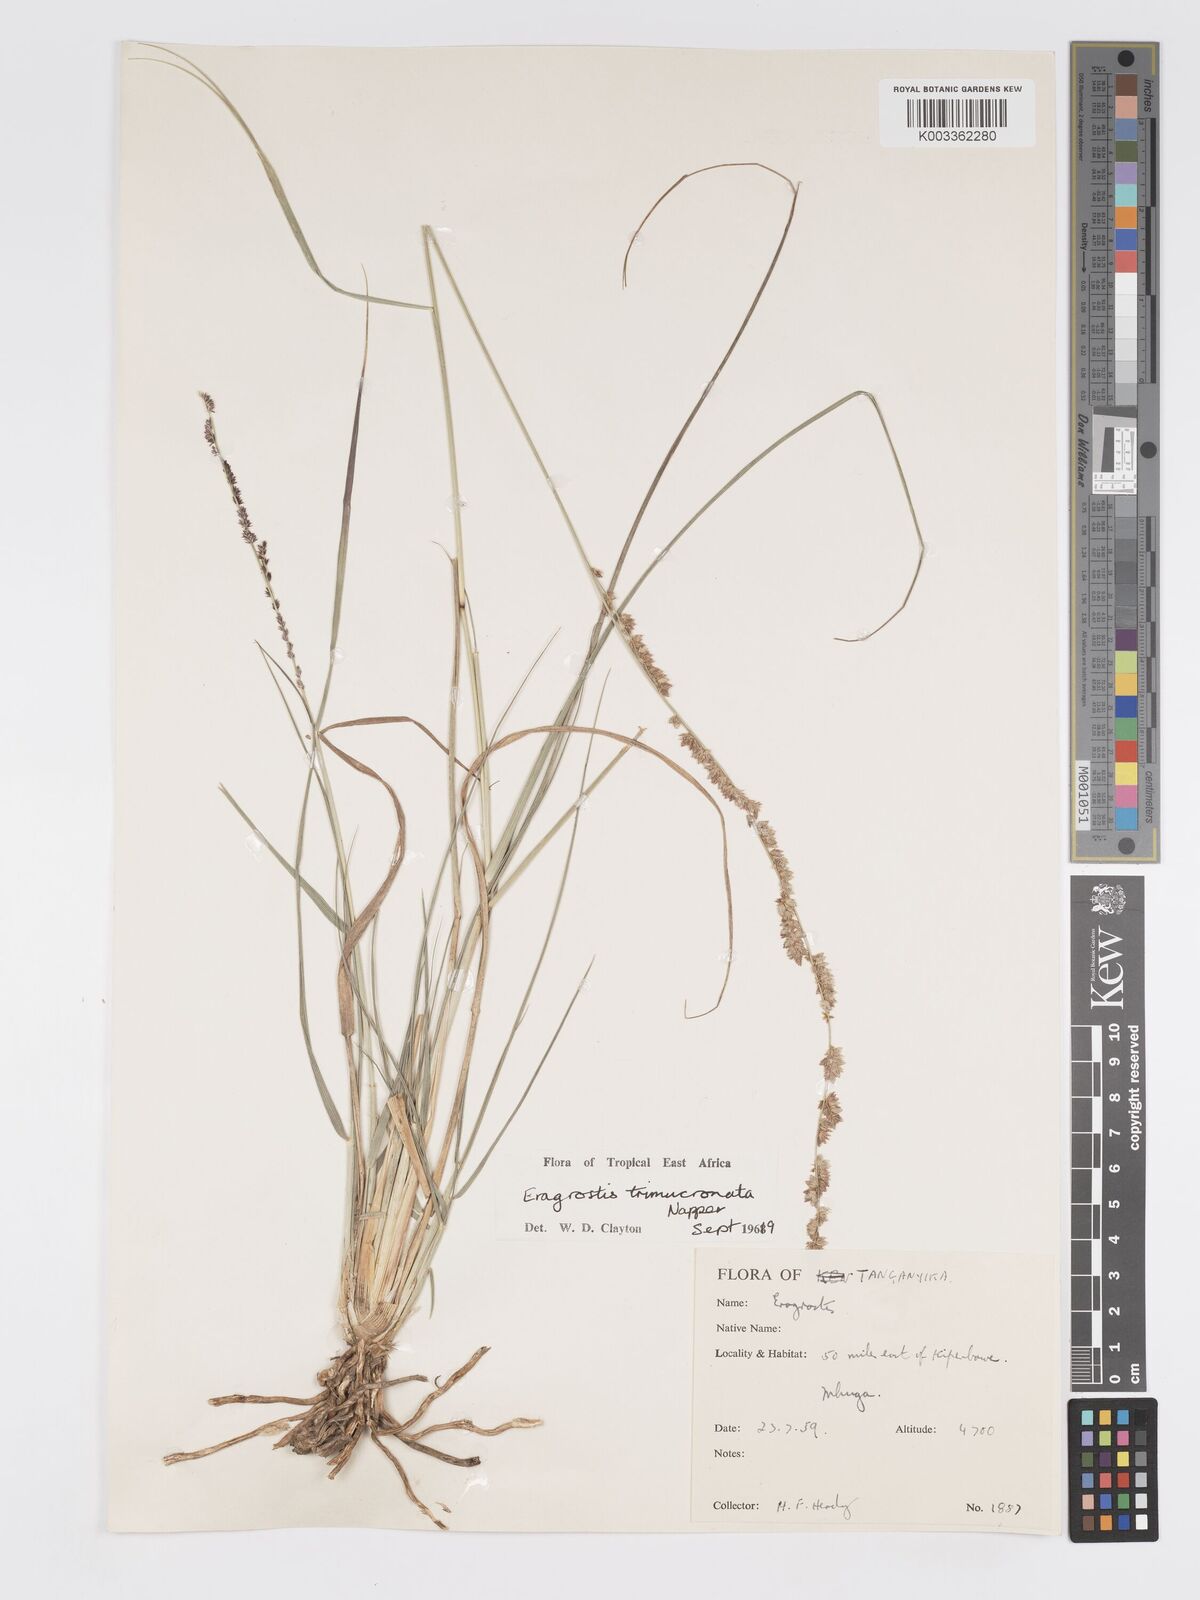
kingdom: Plantae
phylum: Tracheophyta
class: Liliopsida
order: Poales
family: Poaceae
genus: Eragrostis
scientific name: Eragrostis trimucronata
